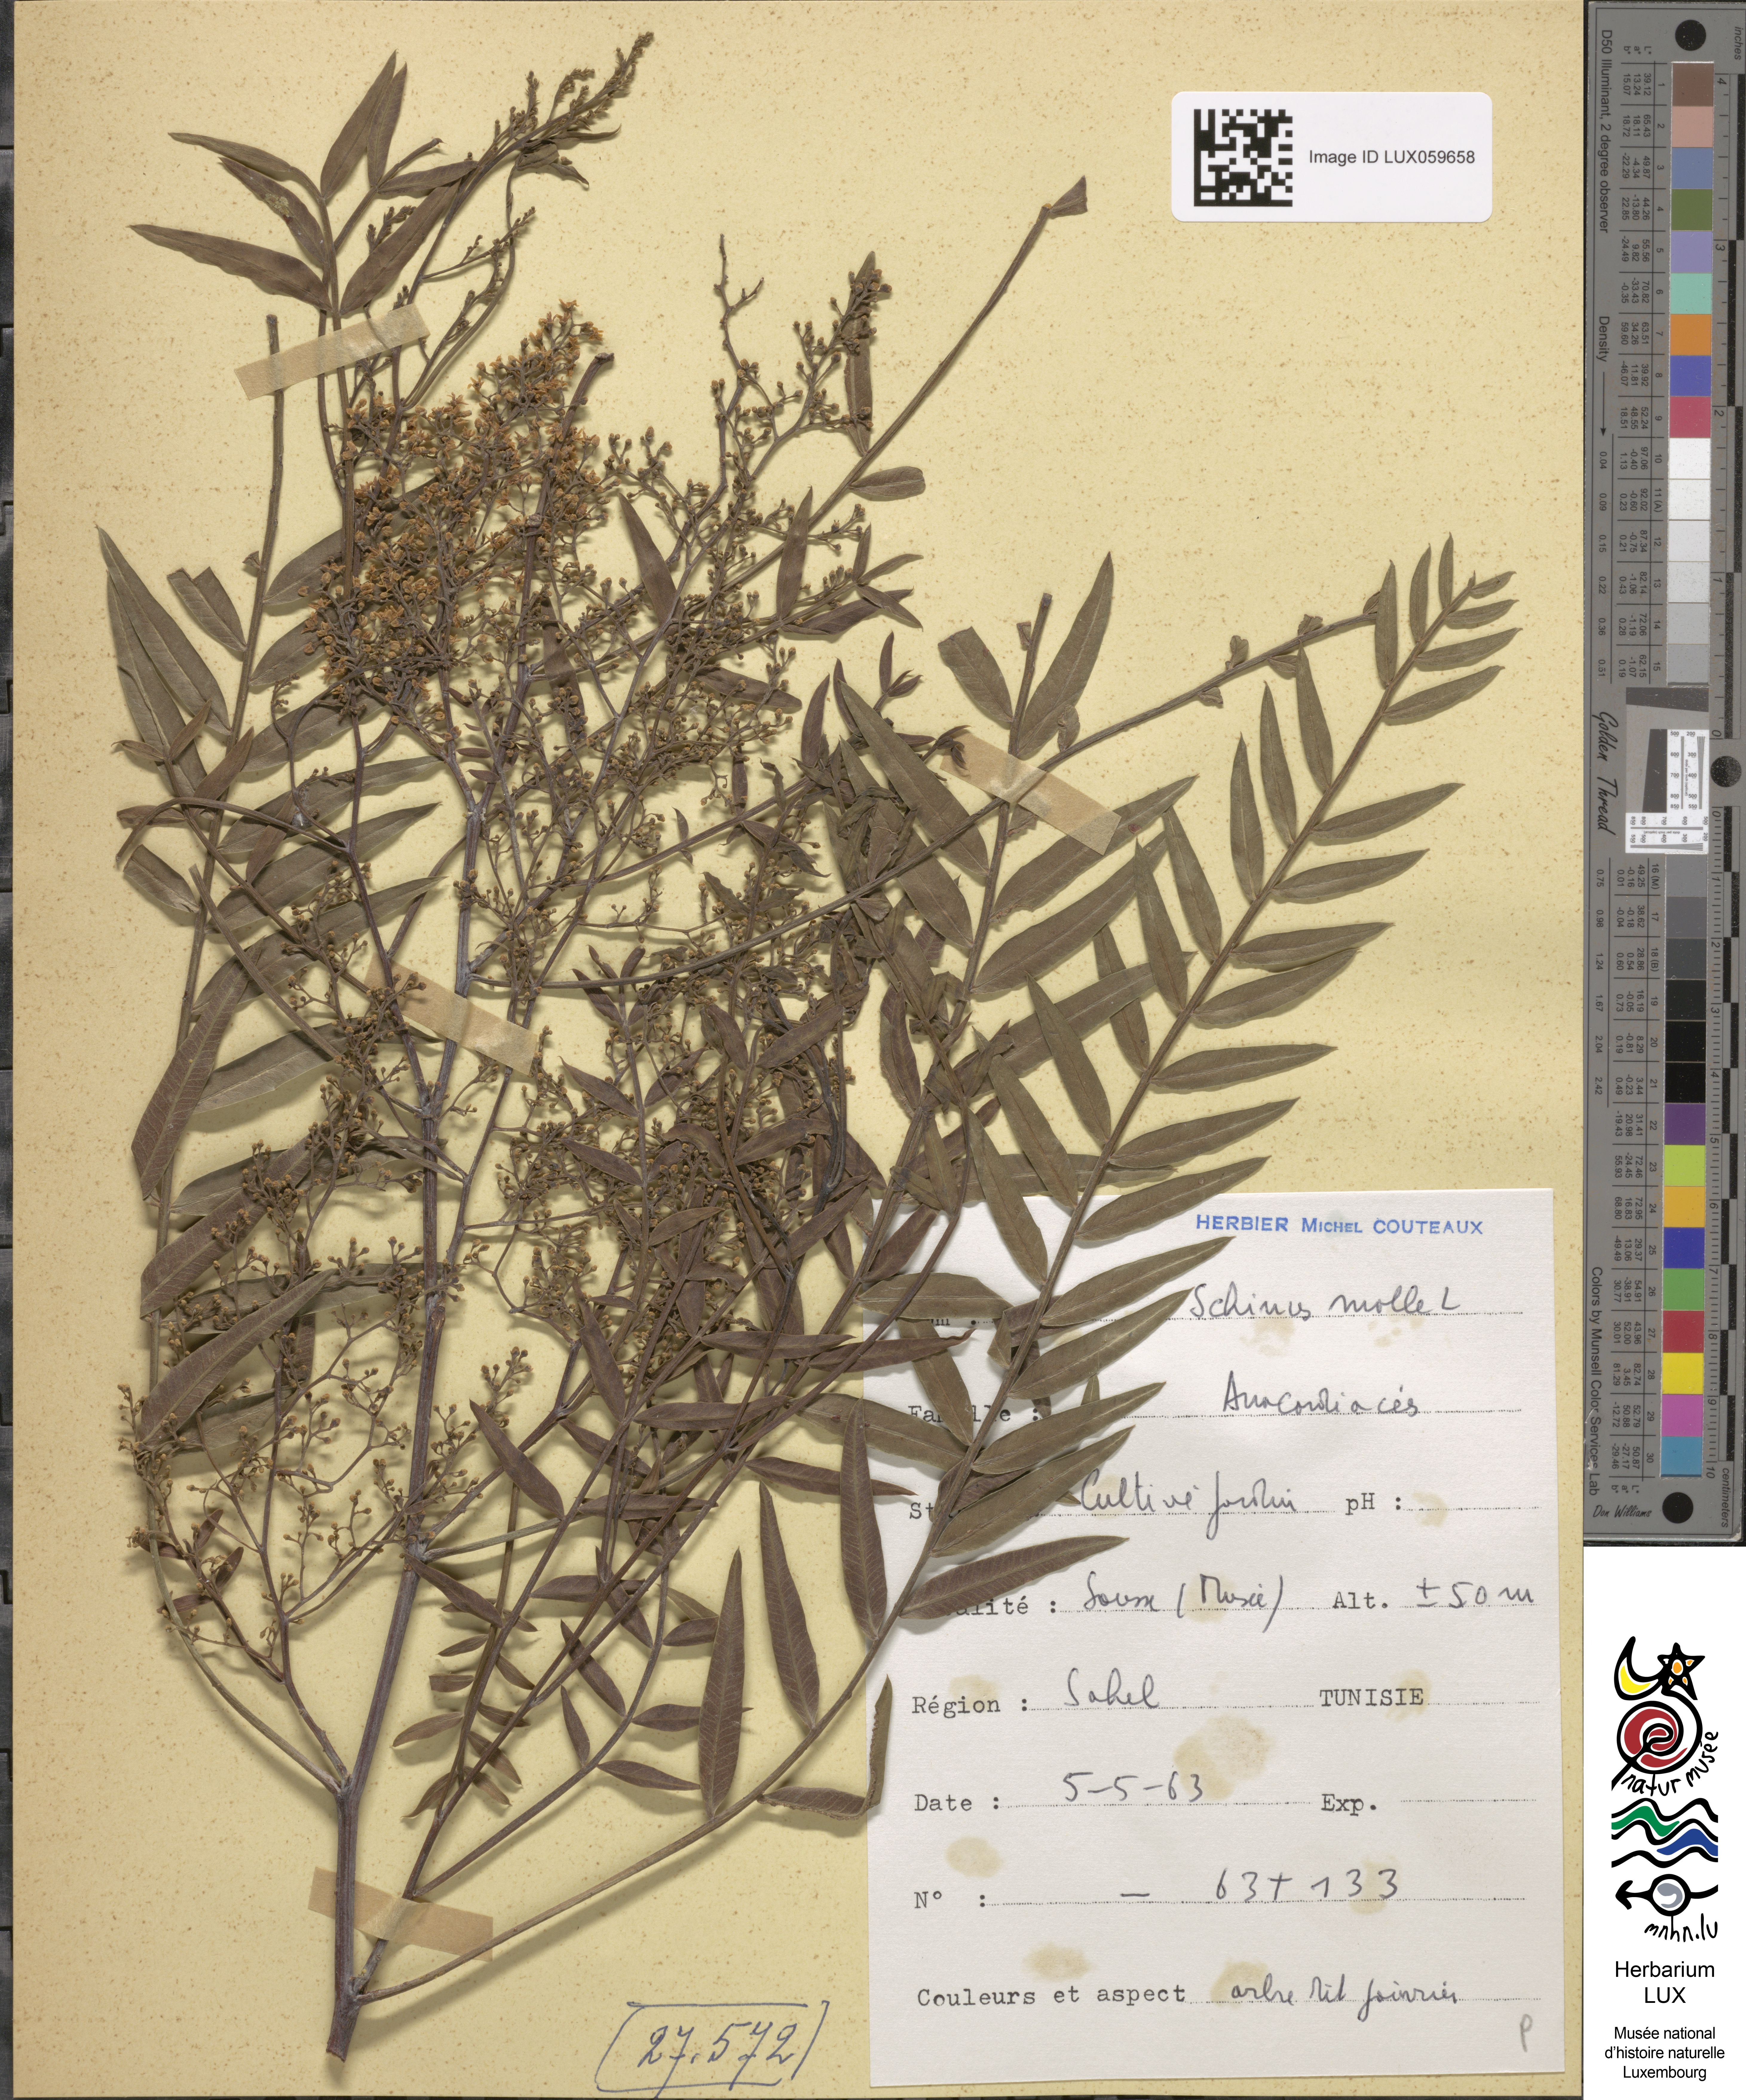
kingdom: Plantae
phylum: Tracheophyta
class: Magnoliopsida
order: Sapindales
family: Anacardiaceae
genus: Schinus
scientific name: Schinus molle
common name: Peruvian peppertree
